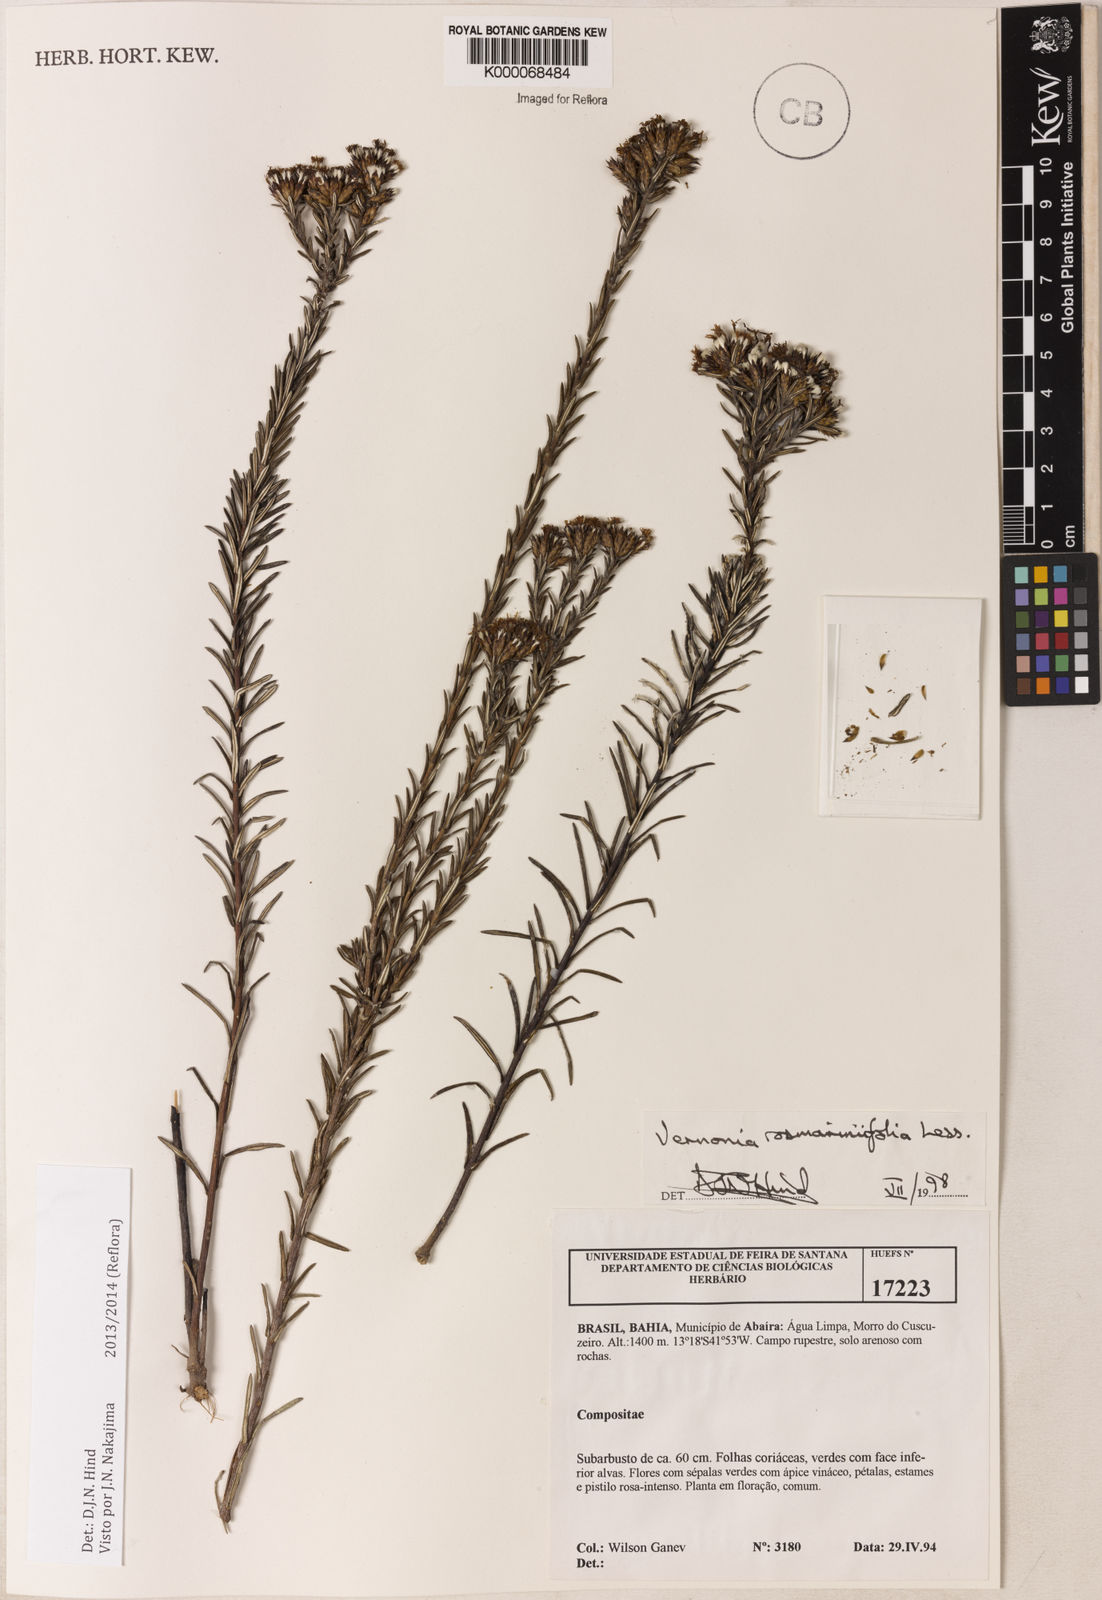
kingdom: Plantae
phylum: Tracheophyta
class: Magnoliopsida
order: Asterales
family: Asteraceae
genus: Lessingianthus
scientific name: Lessingianthus rosmarinifolius
